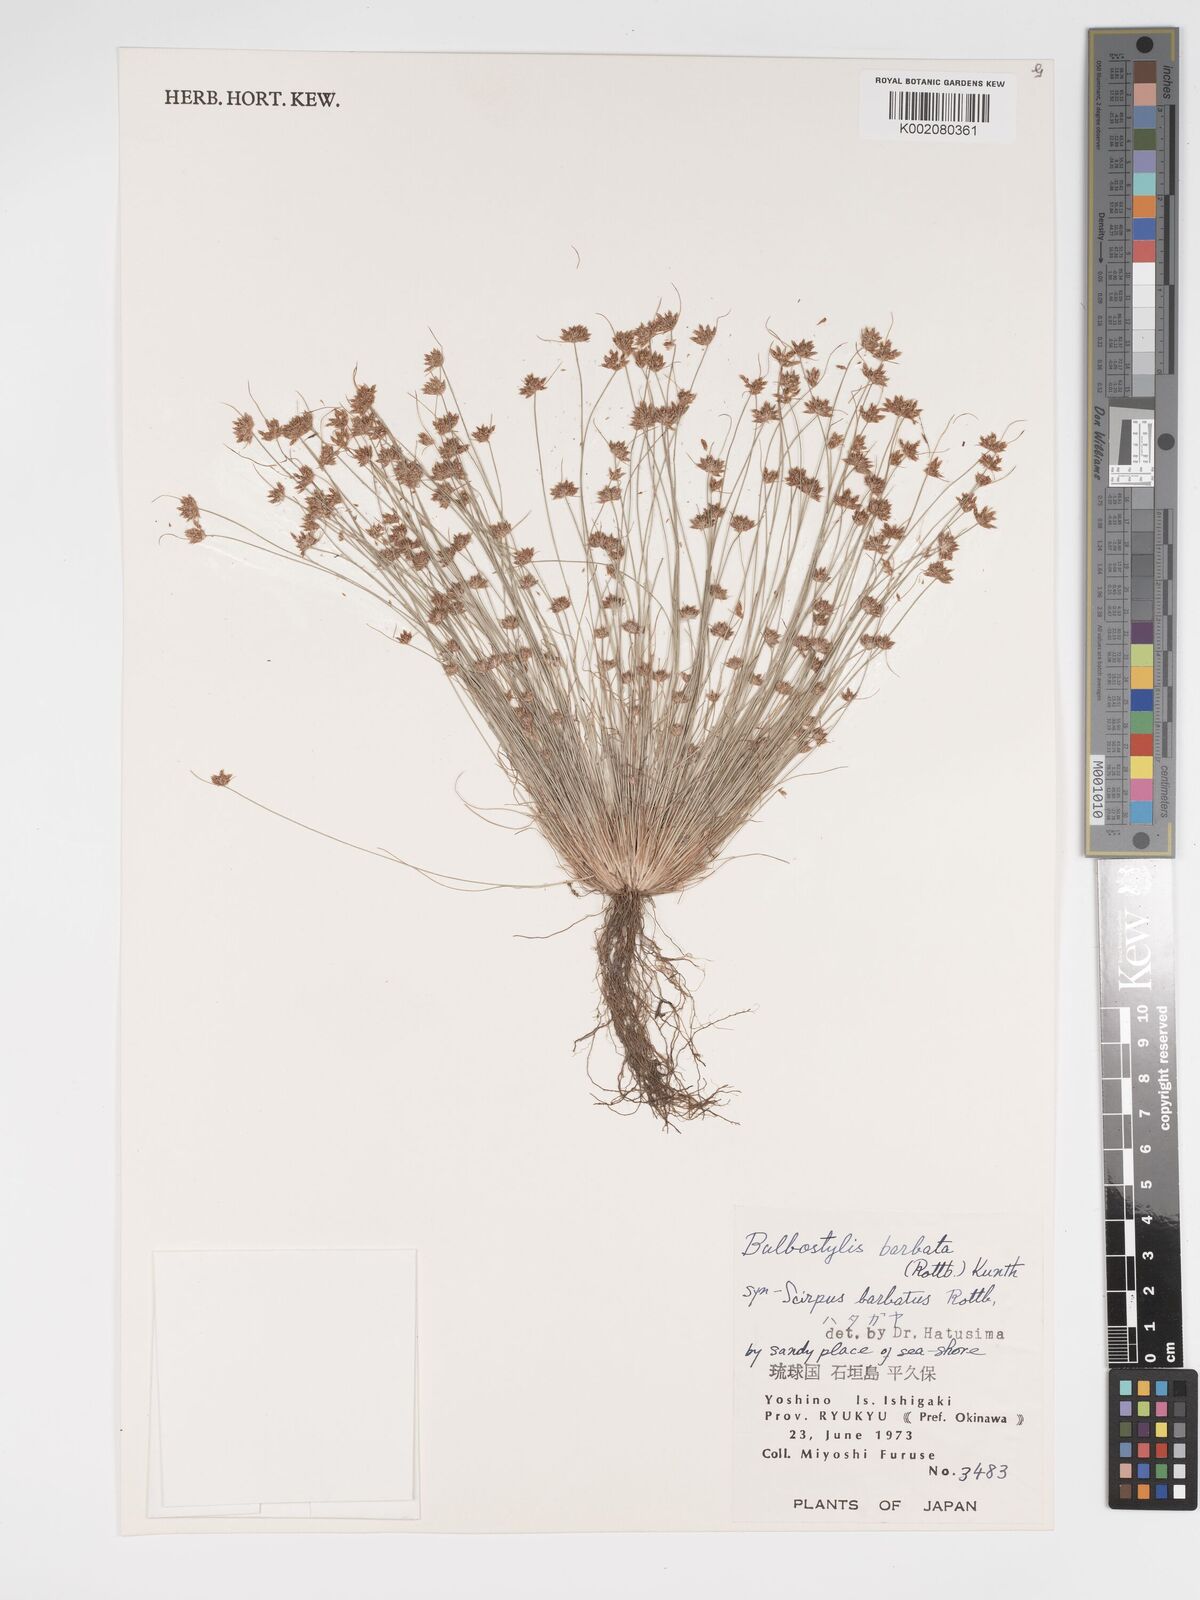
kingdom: Plantae
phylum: Tracheophyta
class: Liliopsida
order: Poales
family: Cyperaceae
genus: Bulbostylis
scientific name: Bulbostylis barbata
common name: Watergrass
